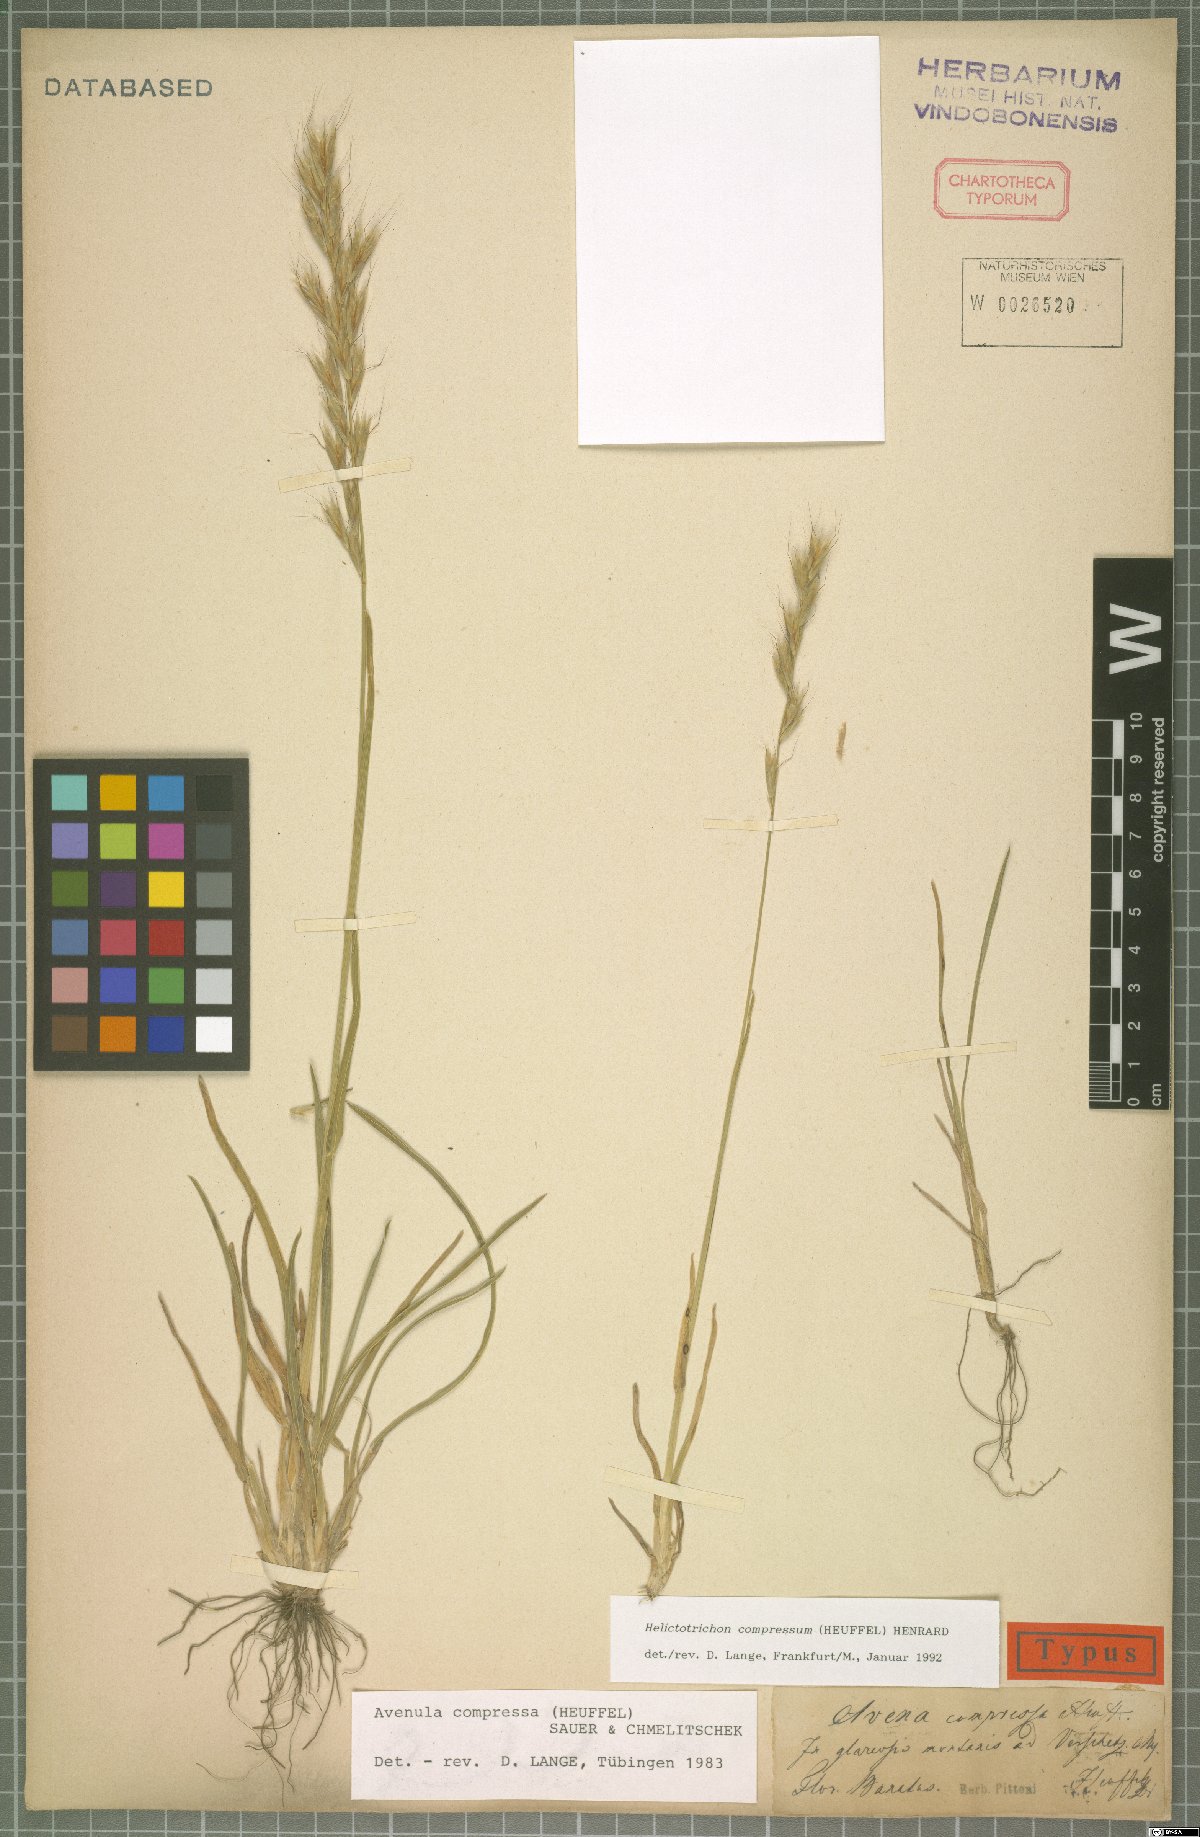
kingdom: Plantae
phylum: Tracheophyta
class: Liliopsida
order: Poales
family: Poaceae
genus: Helictochloa
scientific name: Helictochloa compressa
